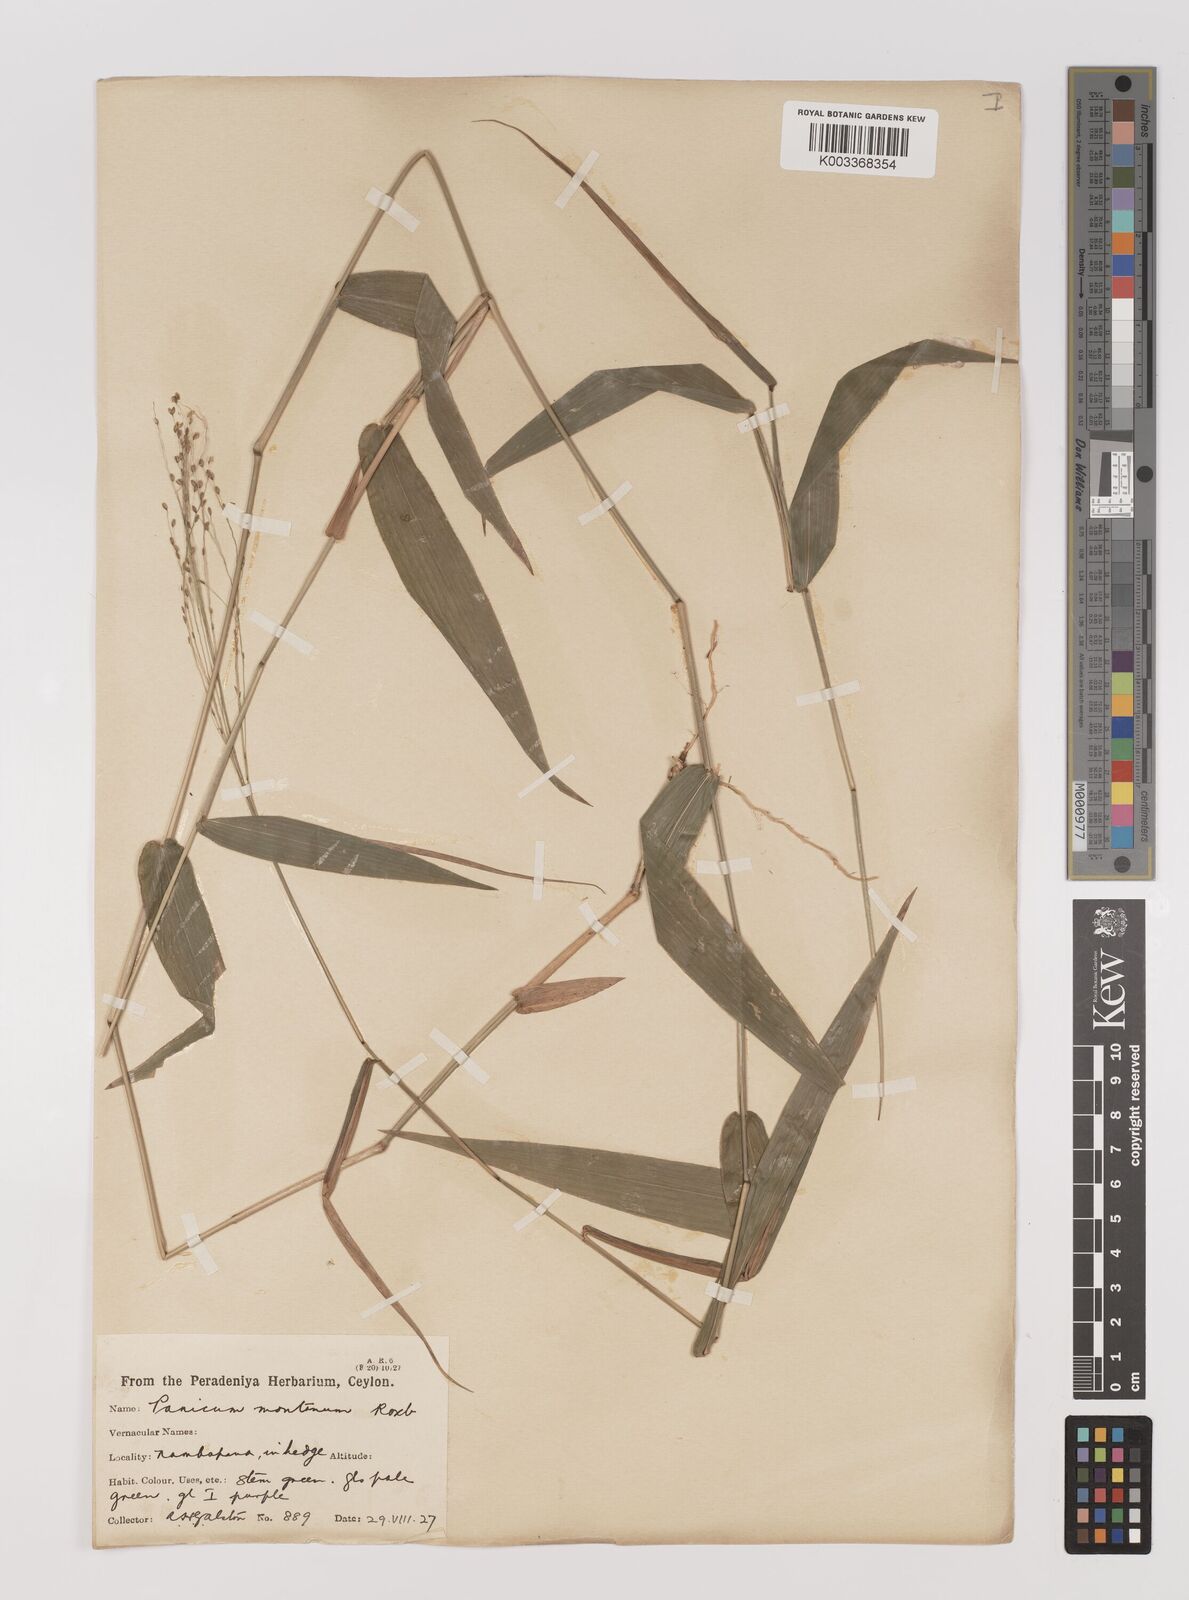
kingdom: Plantae
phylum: Tracheophyta
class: Liliopsida
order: Poales
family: Poaceae
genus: Panicum
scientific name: Panicum notatum
